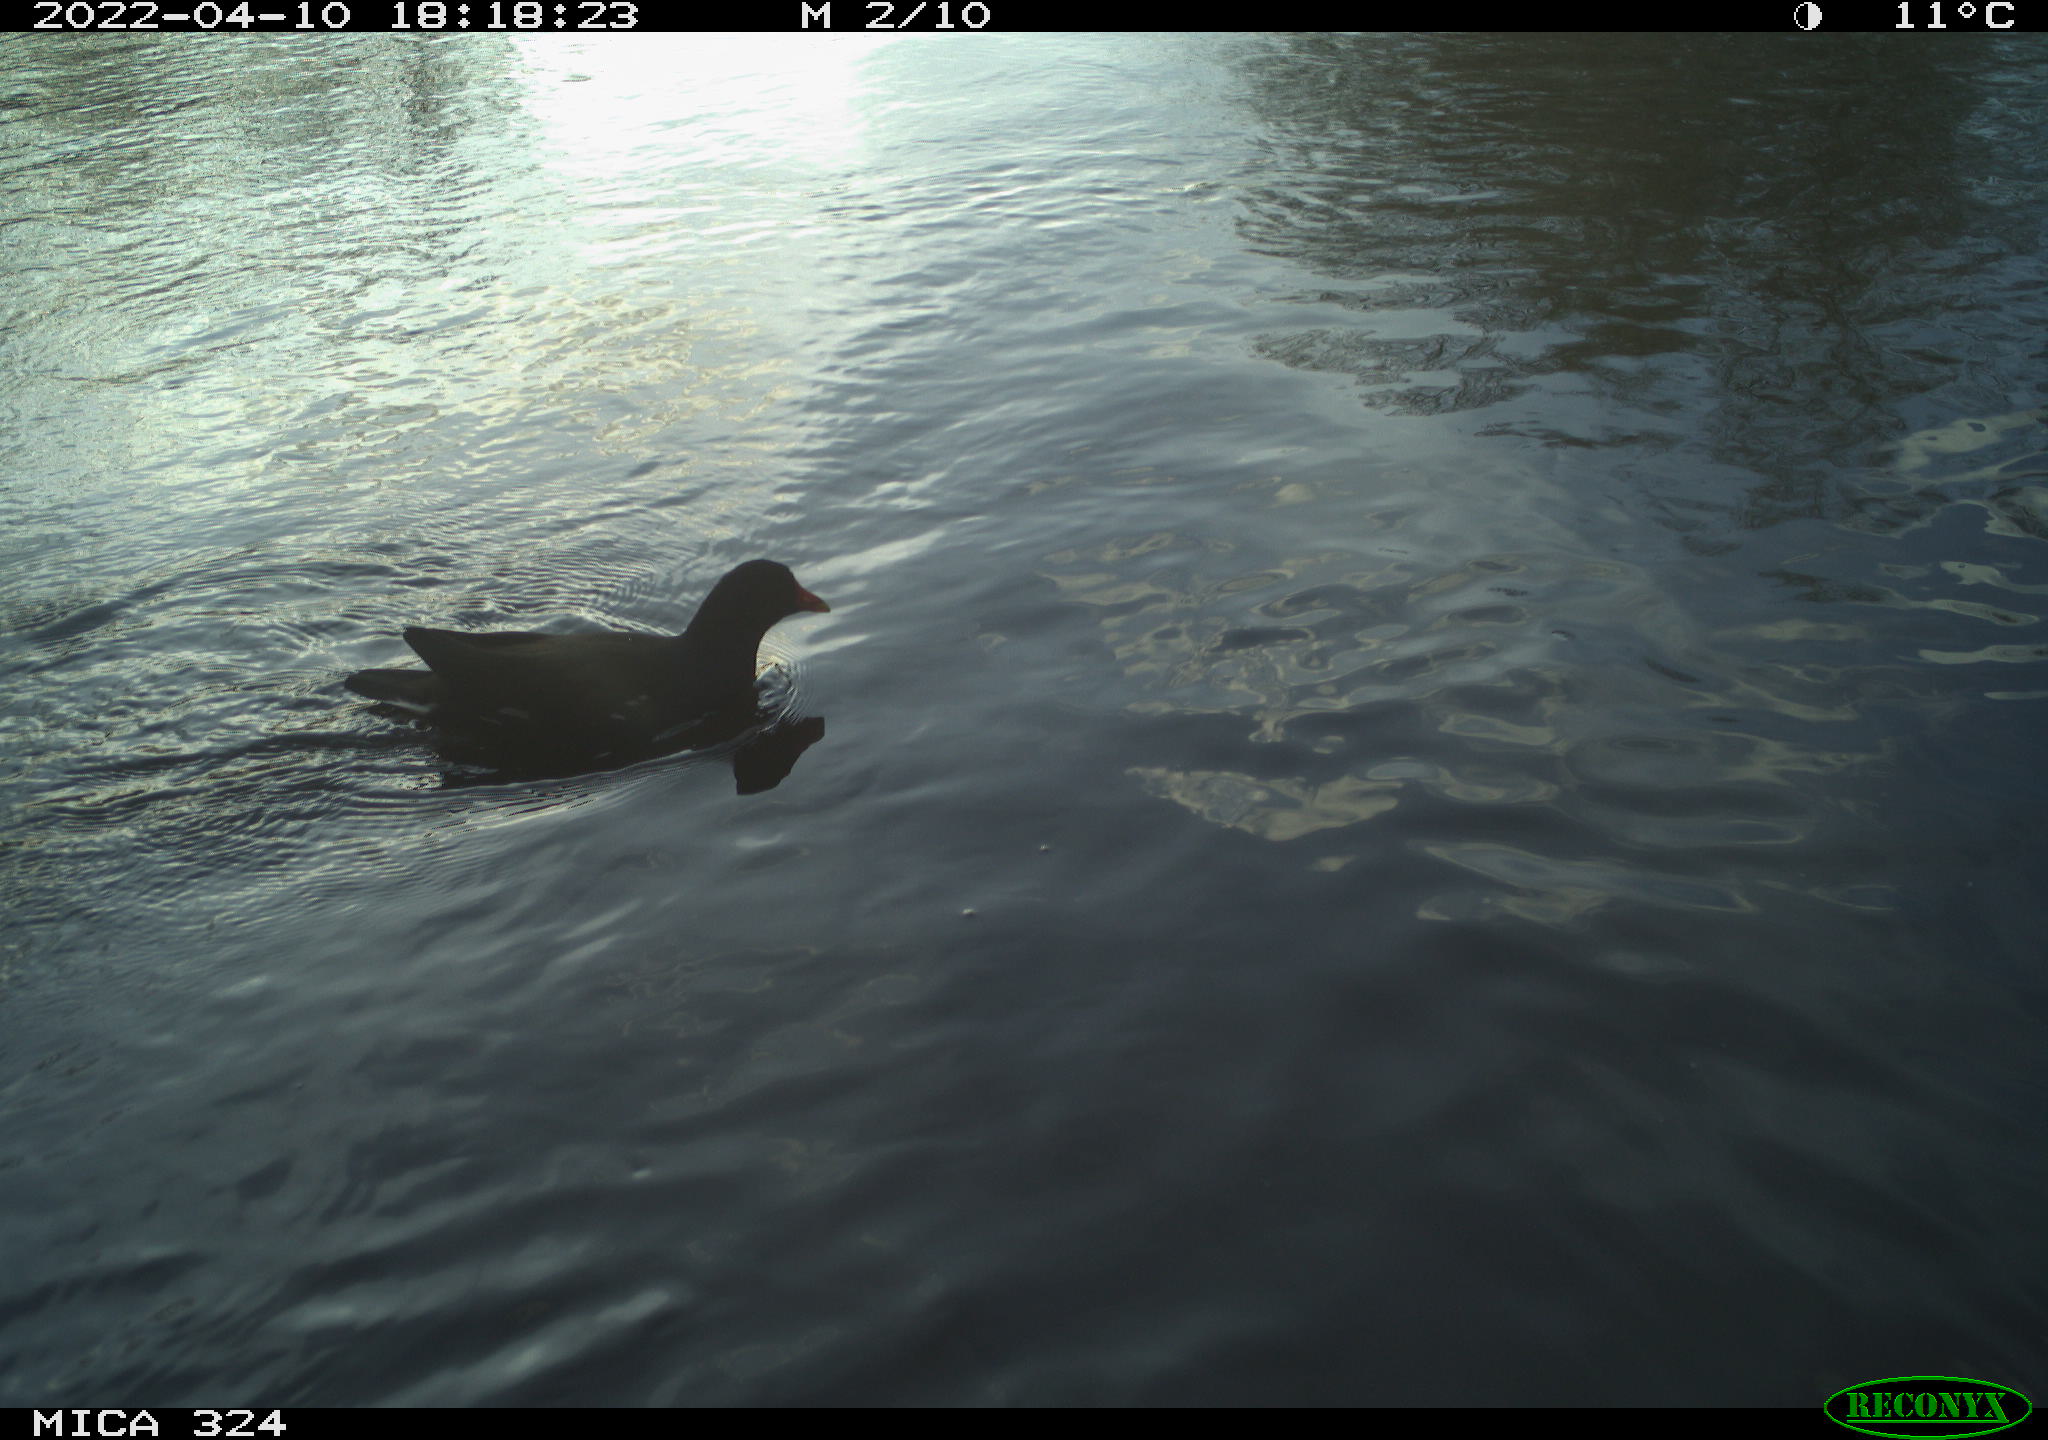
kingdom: Animalia
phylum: Chordata
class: Aves
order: Gruiformes
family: Rallidae
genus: Gallinula
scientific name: Gallinula chloropus
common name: Common moorhen
